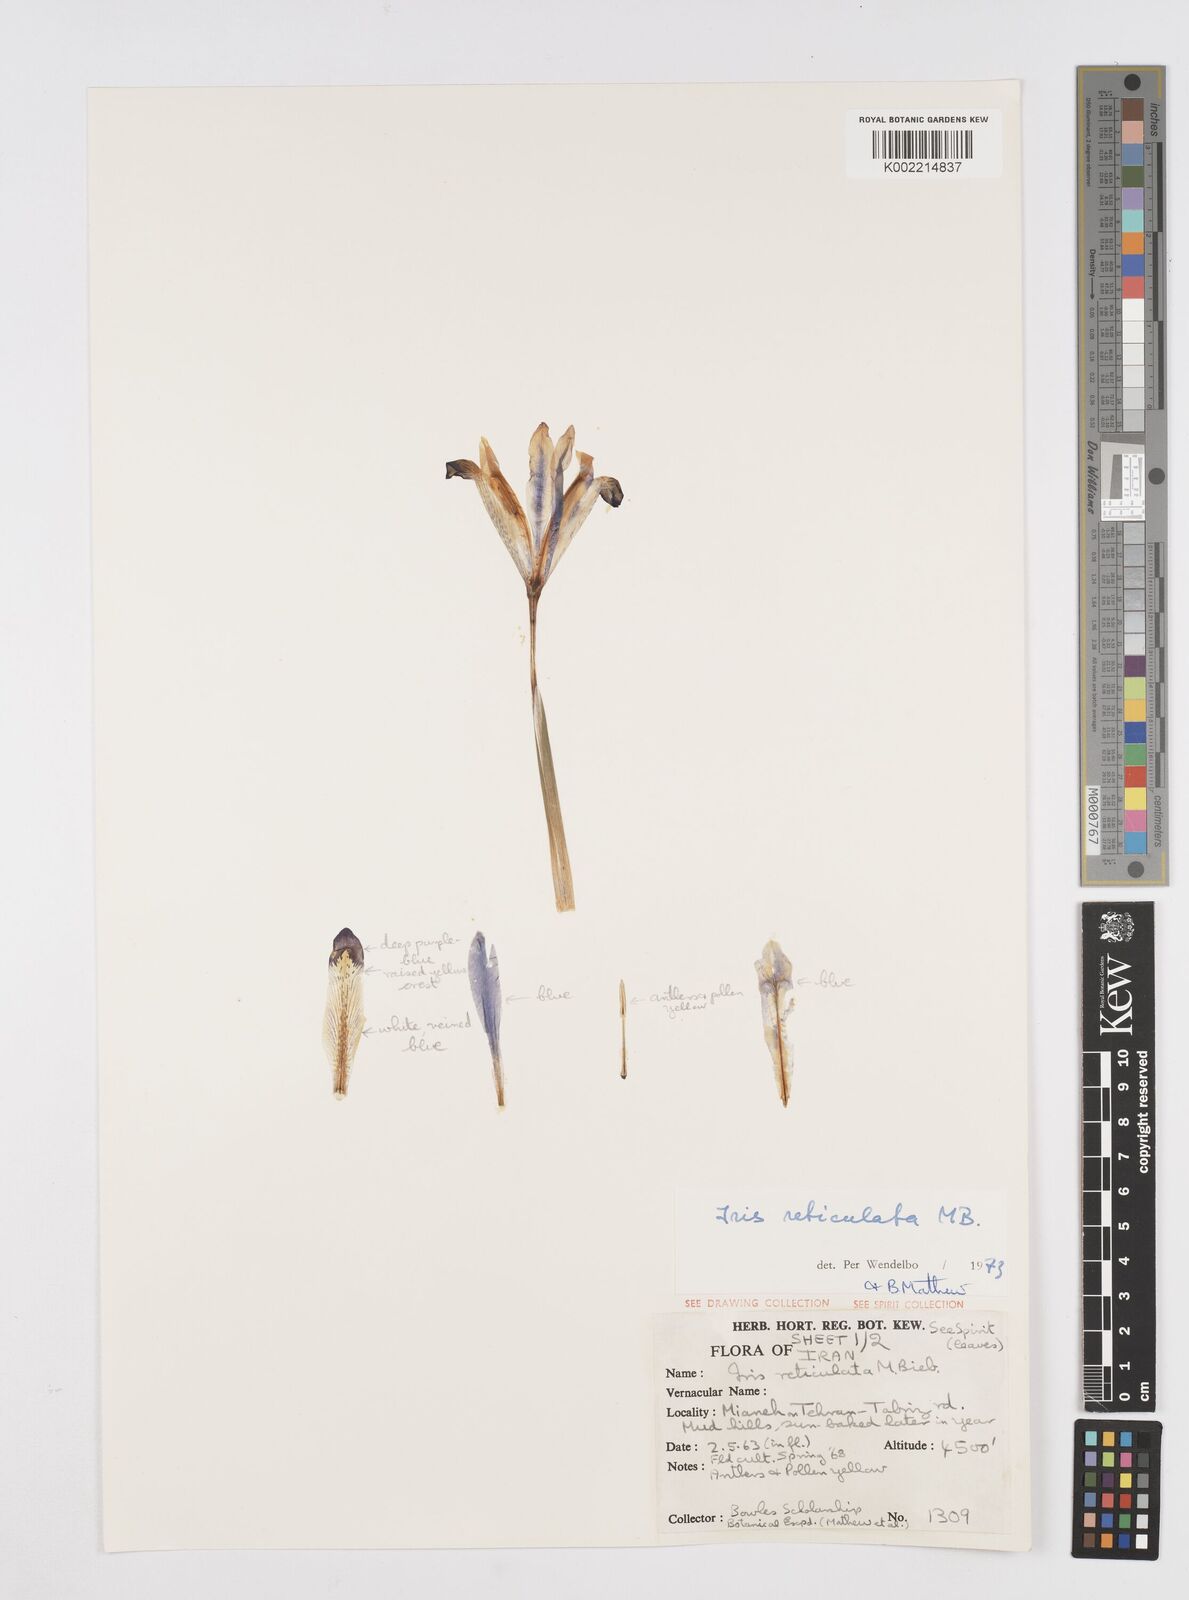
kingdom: Plantae
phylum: Tracheophyta
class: Liliopsida
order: Asparagales
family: Iridaceae
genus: Iris
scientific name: Iris reticulata
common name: Netted iris
